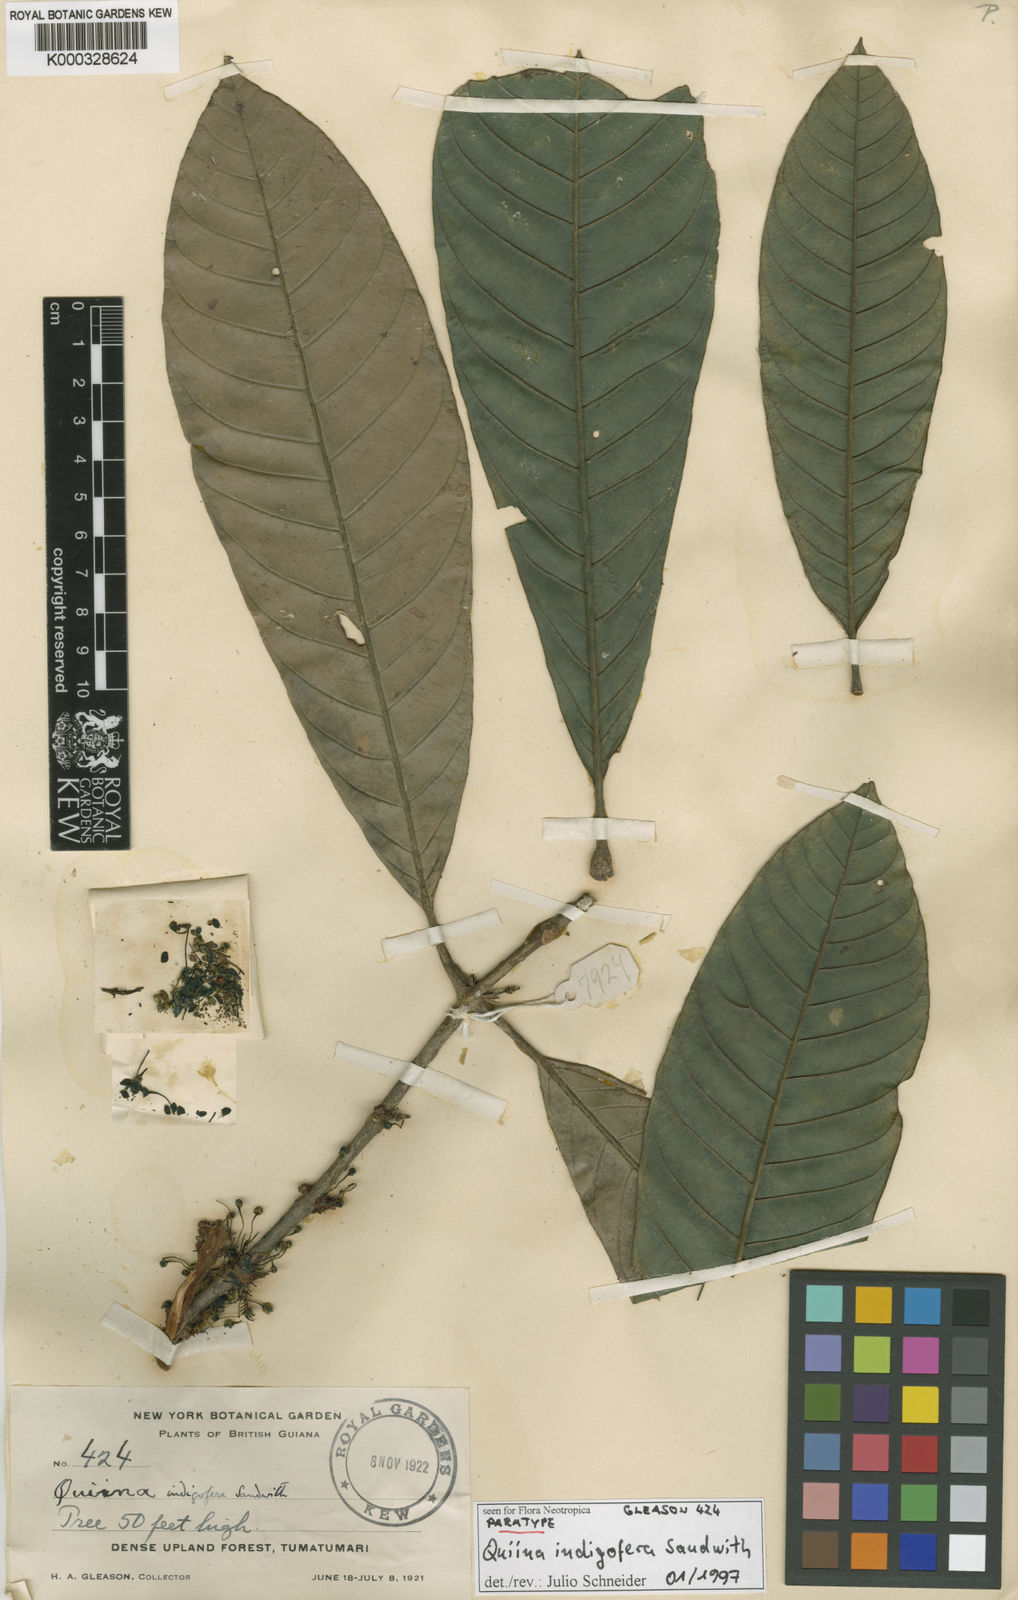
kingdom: Plantae
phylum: Tracheophyta
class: Magnoliopsida
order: Malpighiales
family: Quiinaceae
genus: Quiina
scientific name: Quiina indigofera
